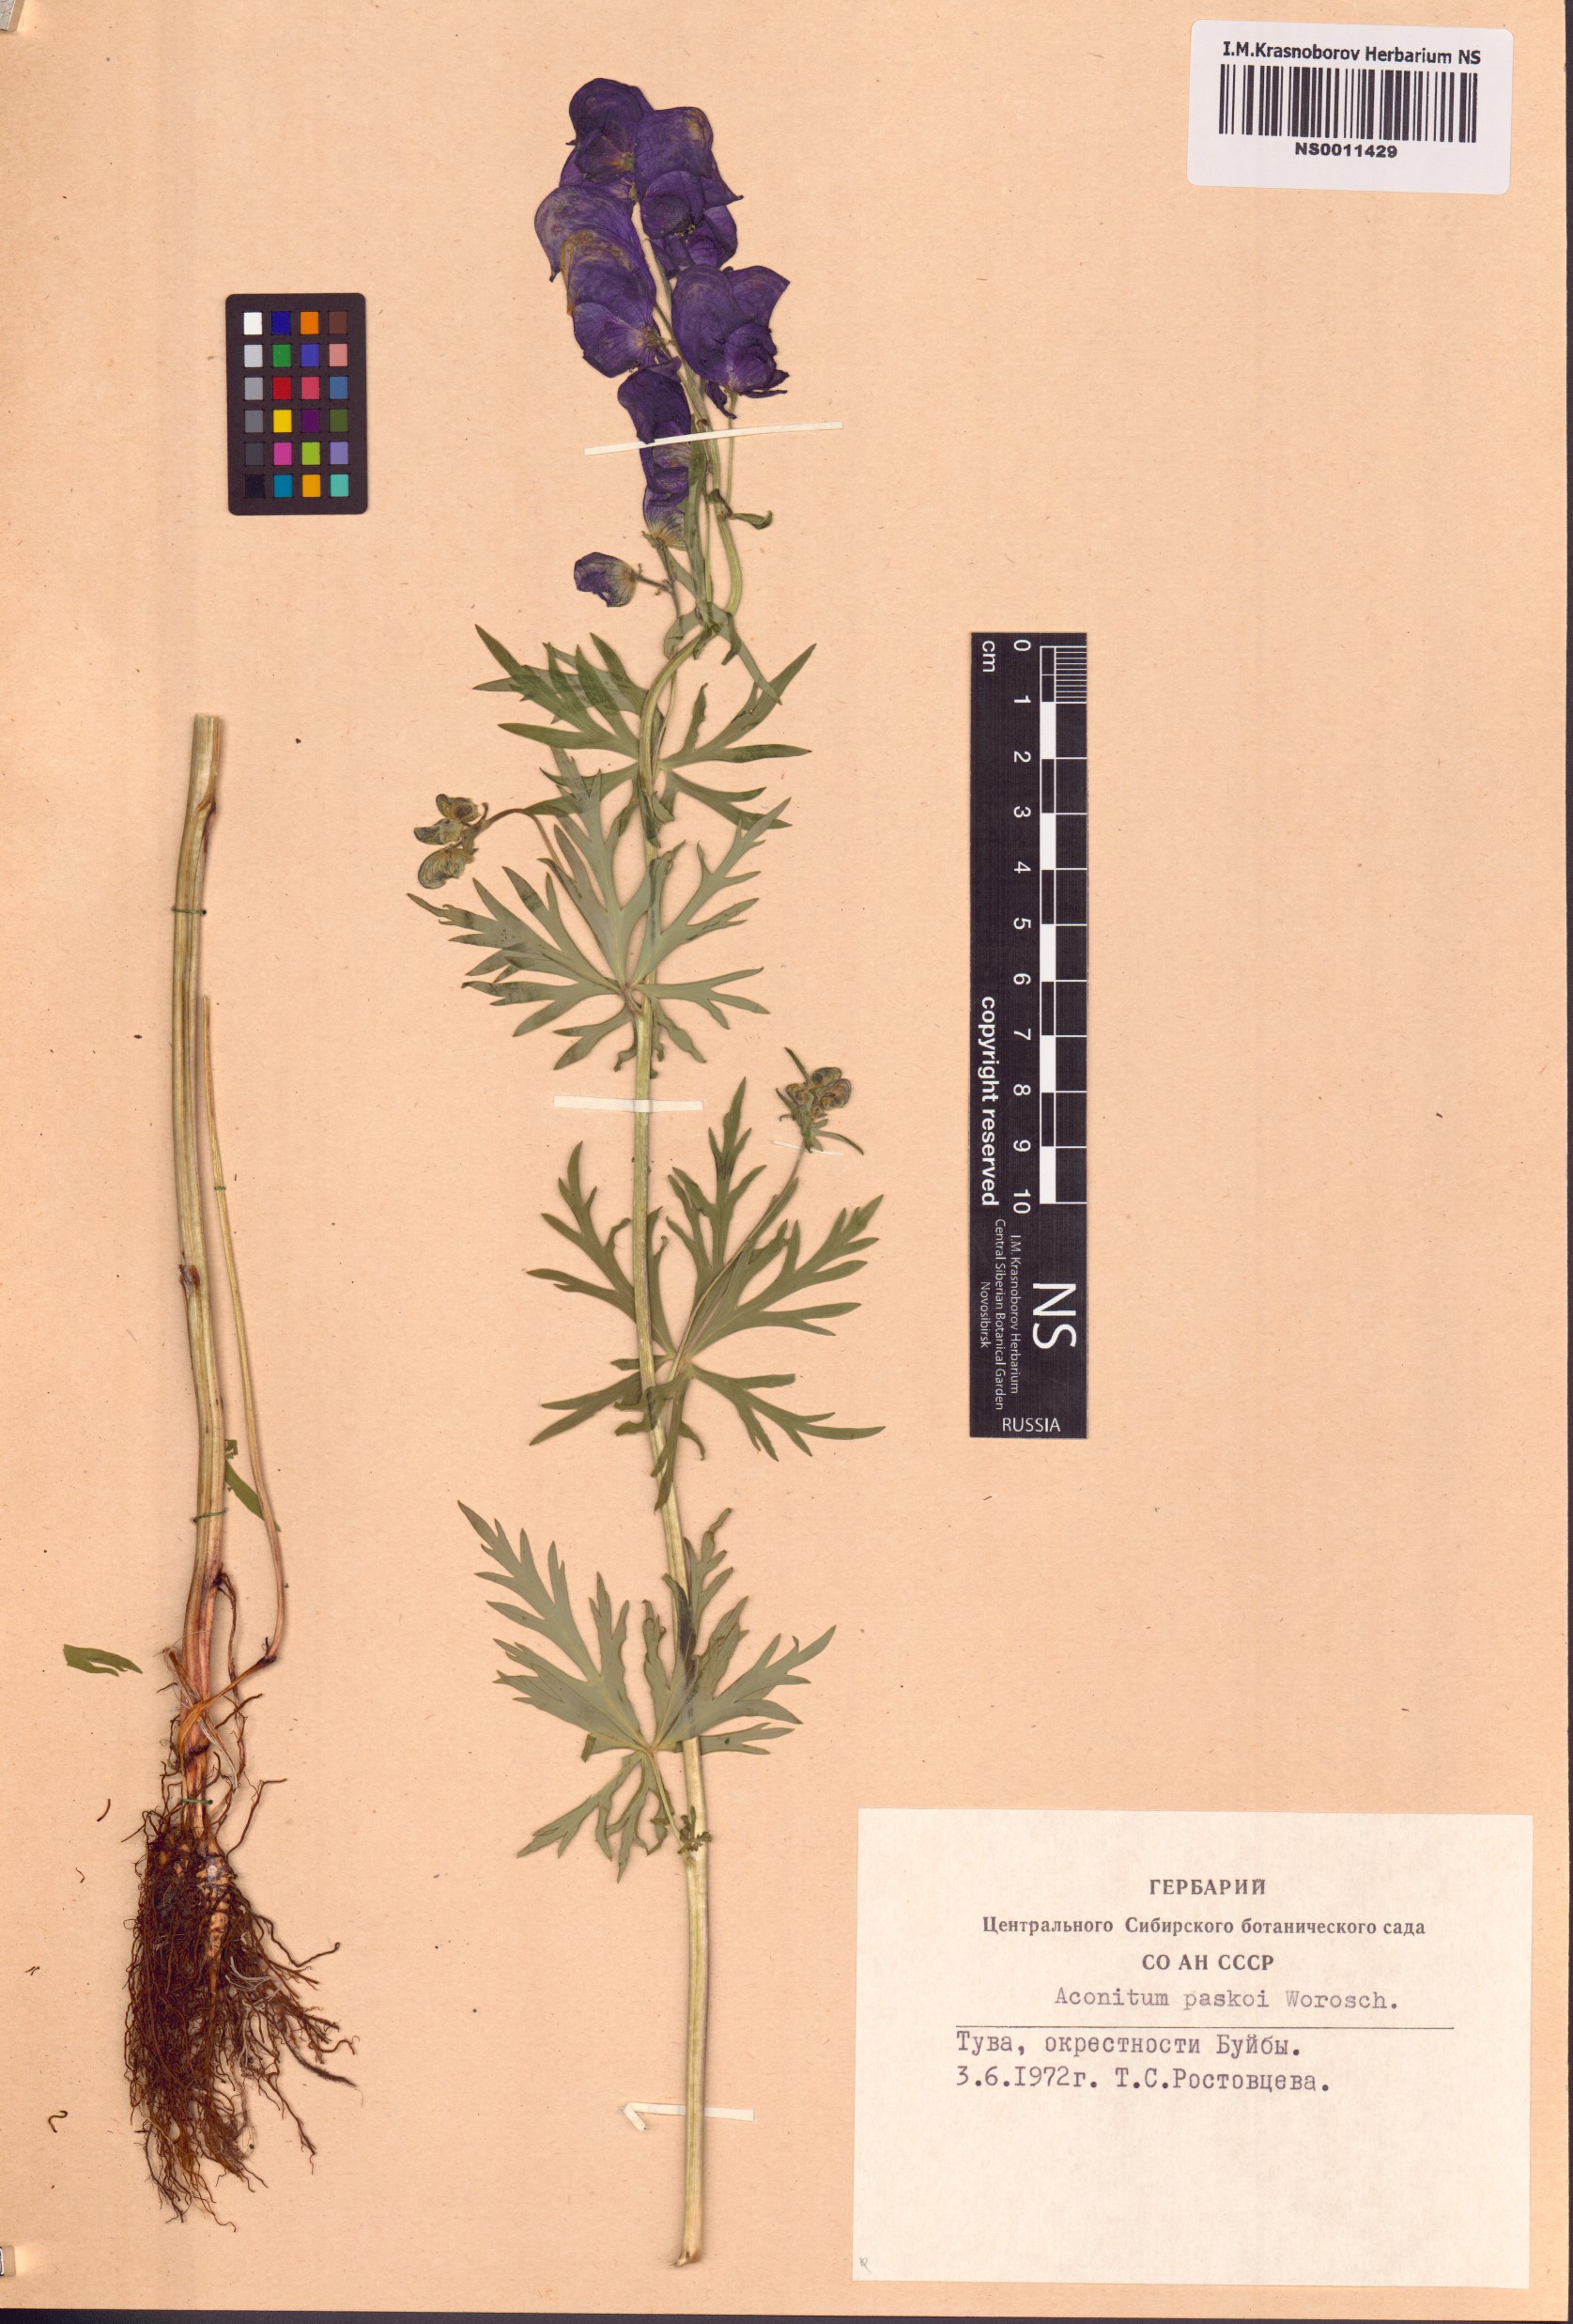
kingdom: Plantae
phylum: Tracheophyta
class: Magnoliopsida
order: Ranunculales
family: Ranunculaceae
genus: Aconitum
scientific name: Aconitum pascoi
